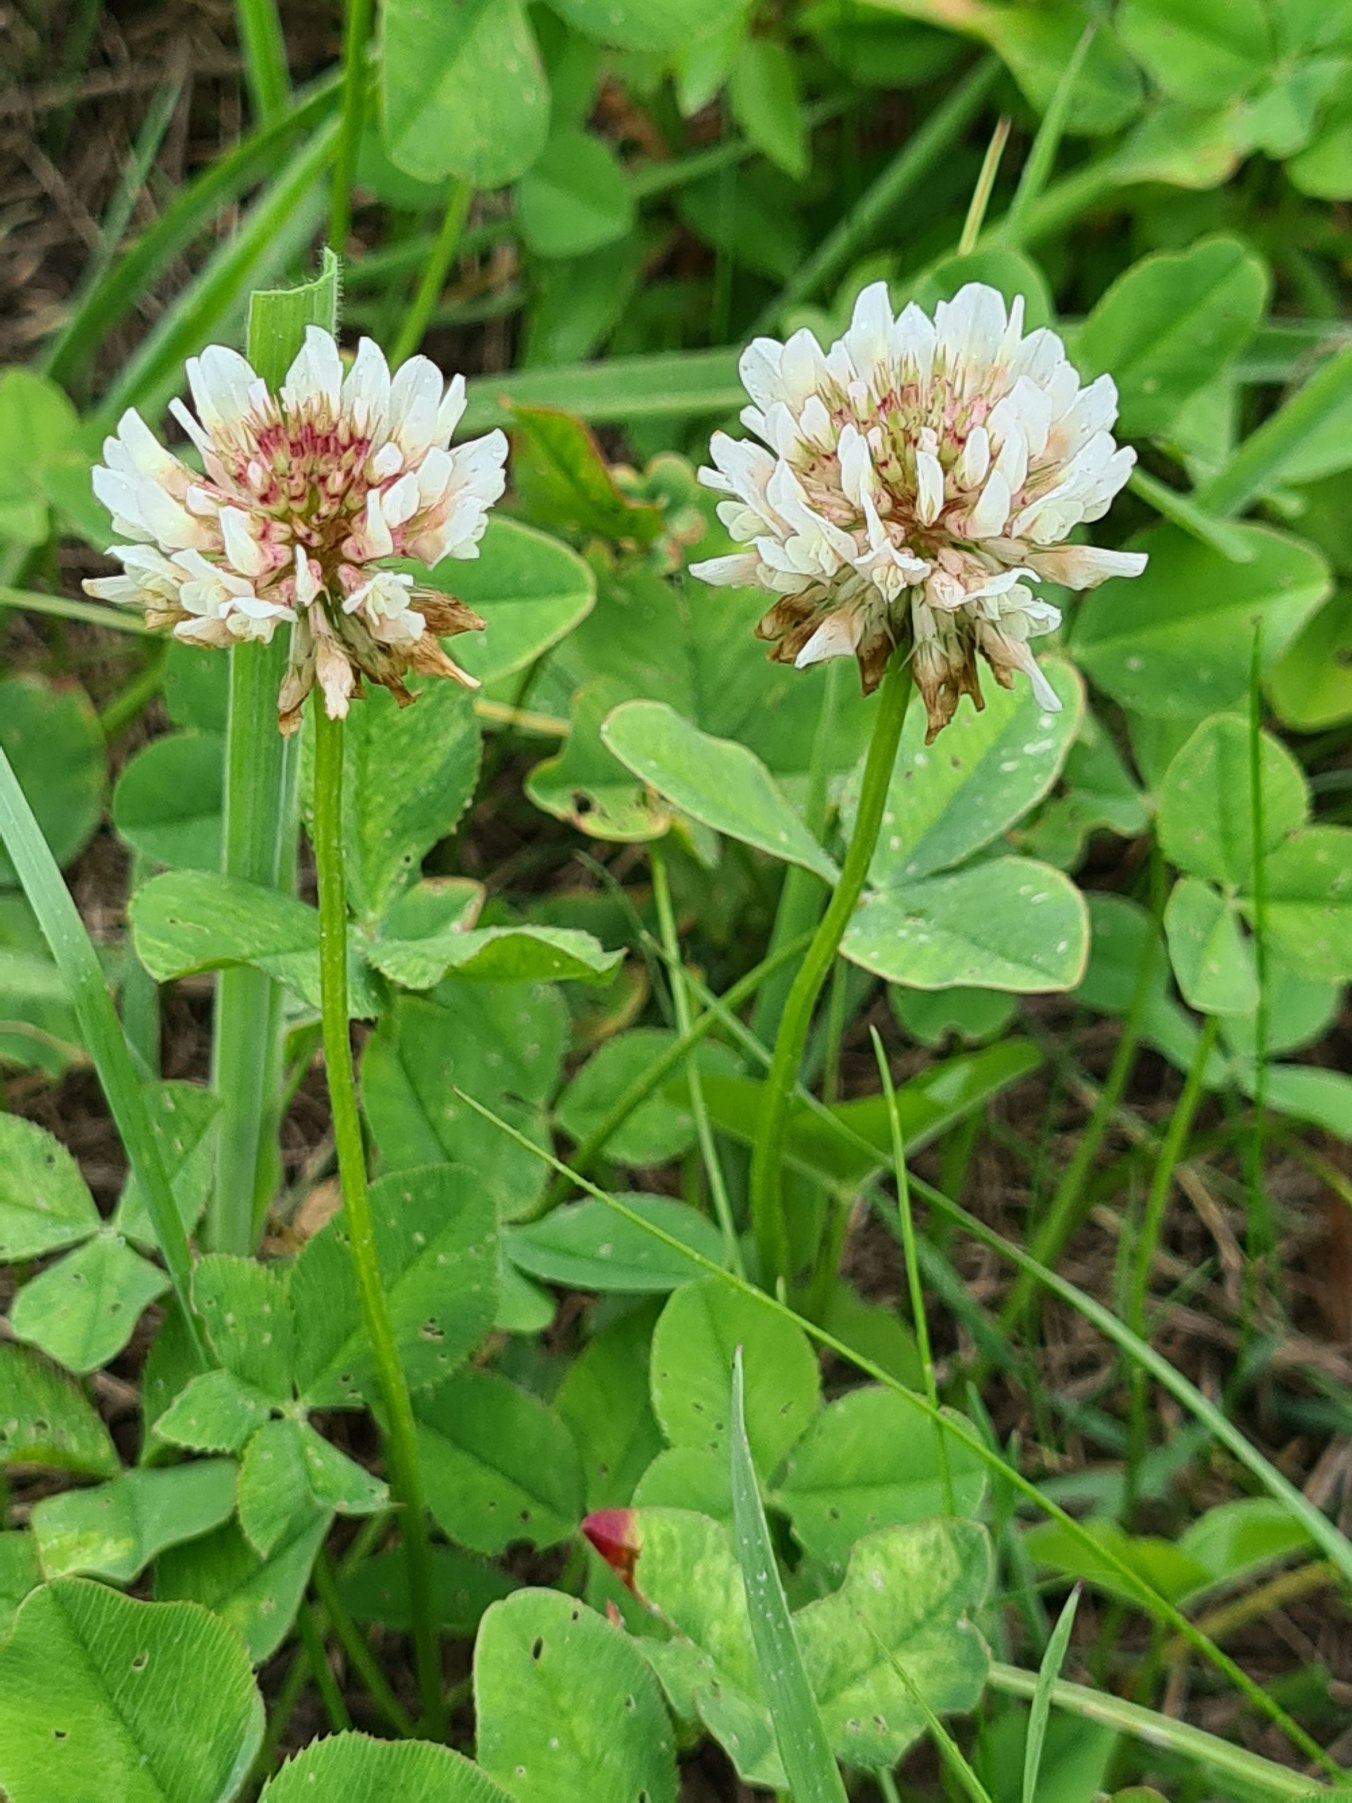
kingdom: Plantae
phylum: Tracheophyta
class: Magnoliopsida
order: Fabales
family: Fabaceae
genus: Trifolium
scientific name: Trifolium repens
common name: Hvid-kløver
